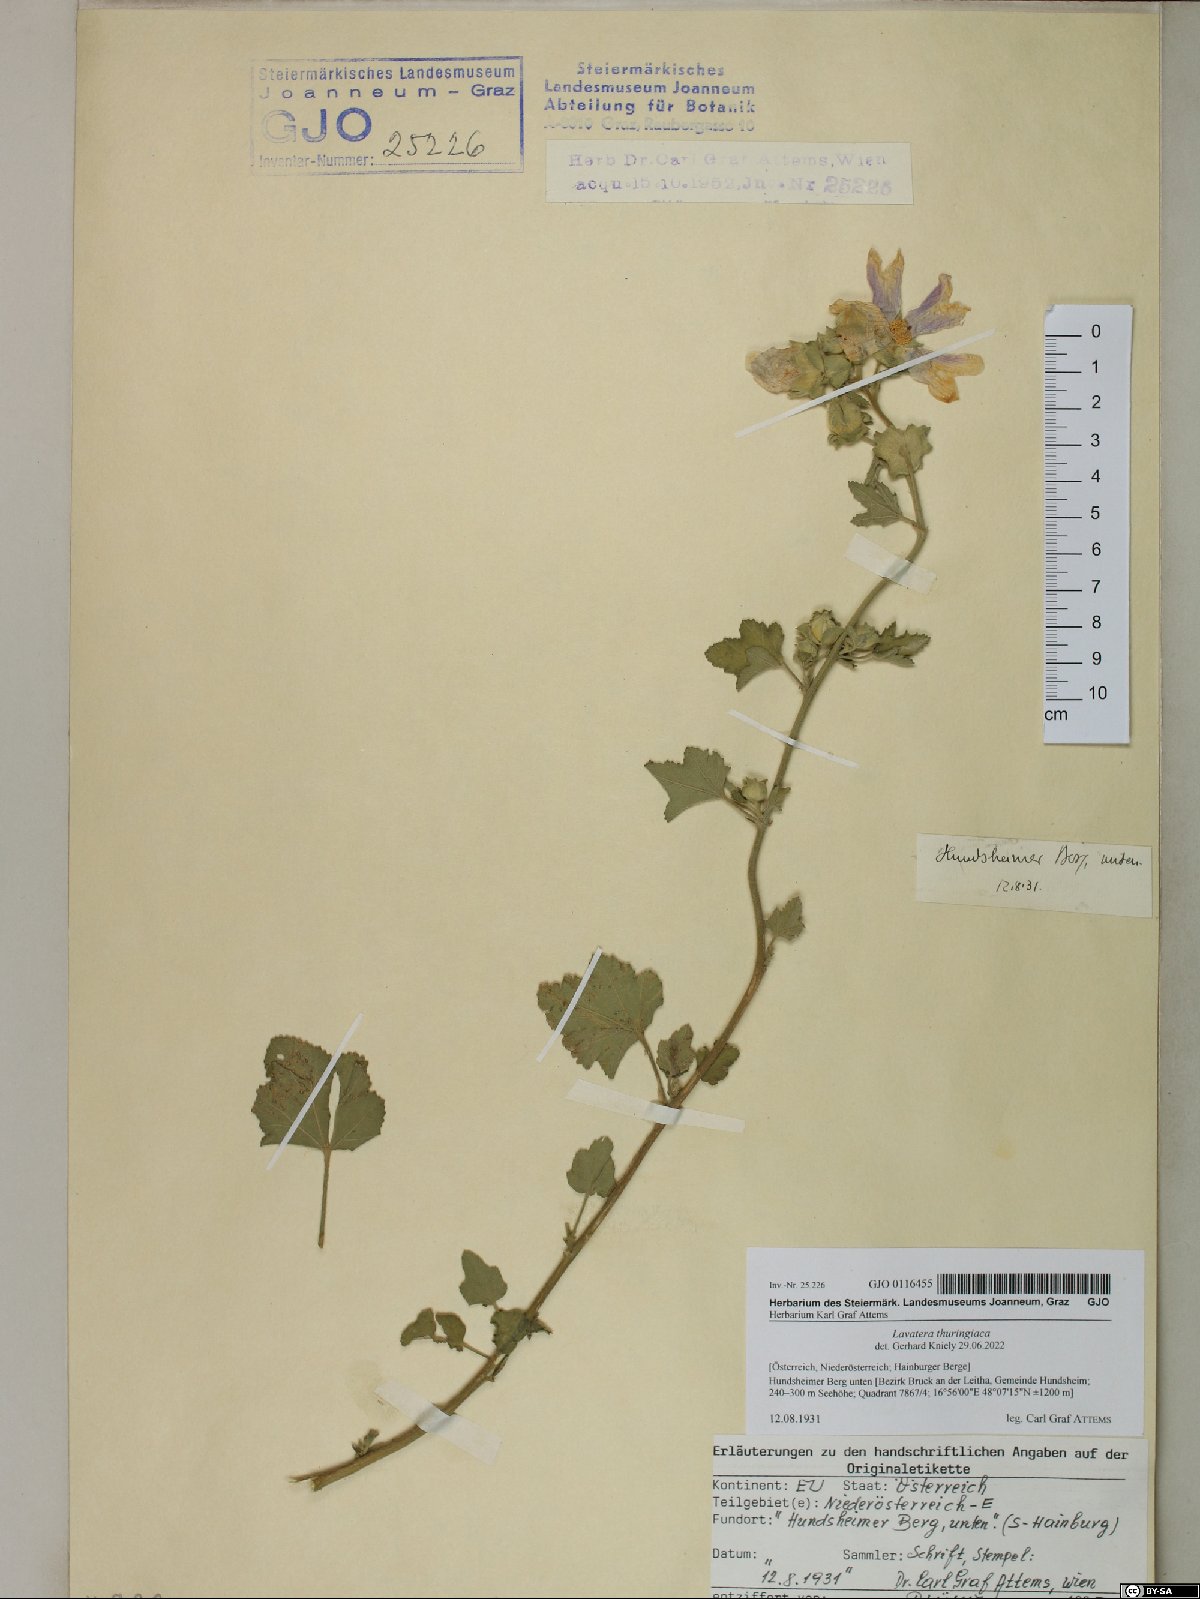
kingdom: Plantae
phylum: Tracheophyta
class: Magnoliopsida
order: Malvales
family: Malvaceae
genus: Malva
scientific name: Malva thuringiaca
